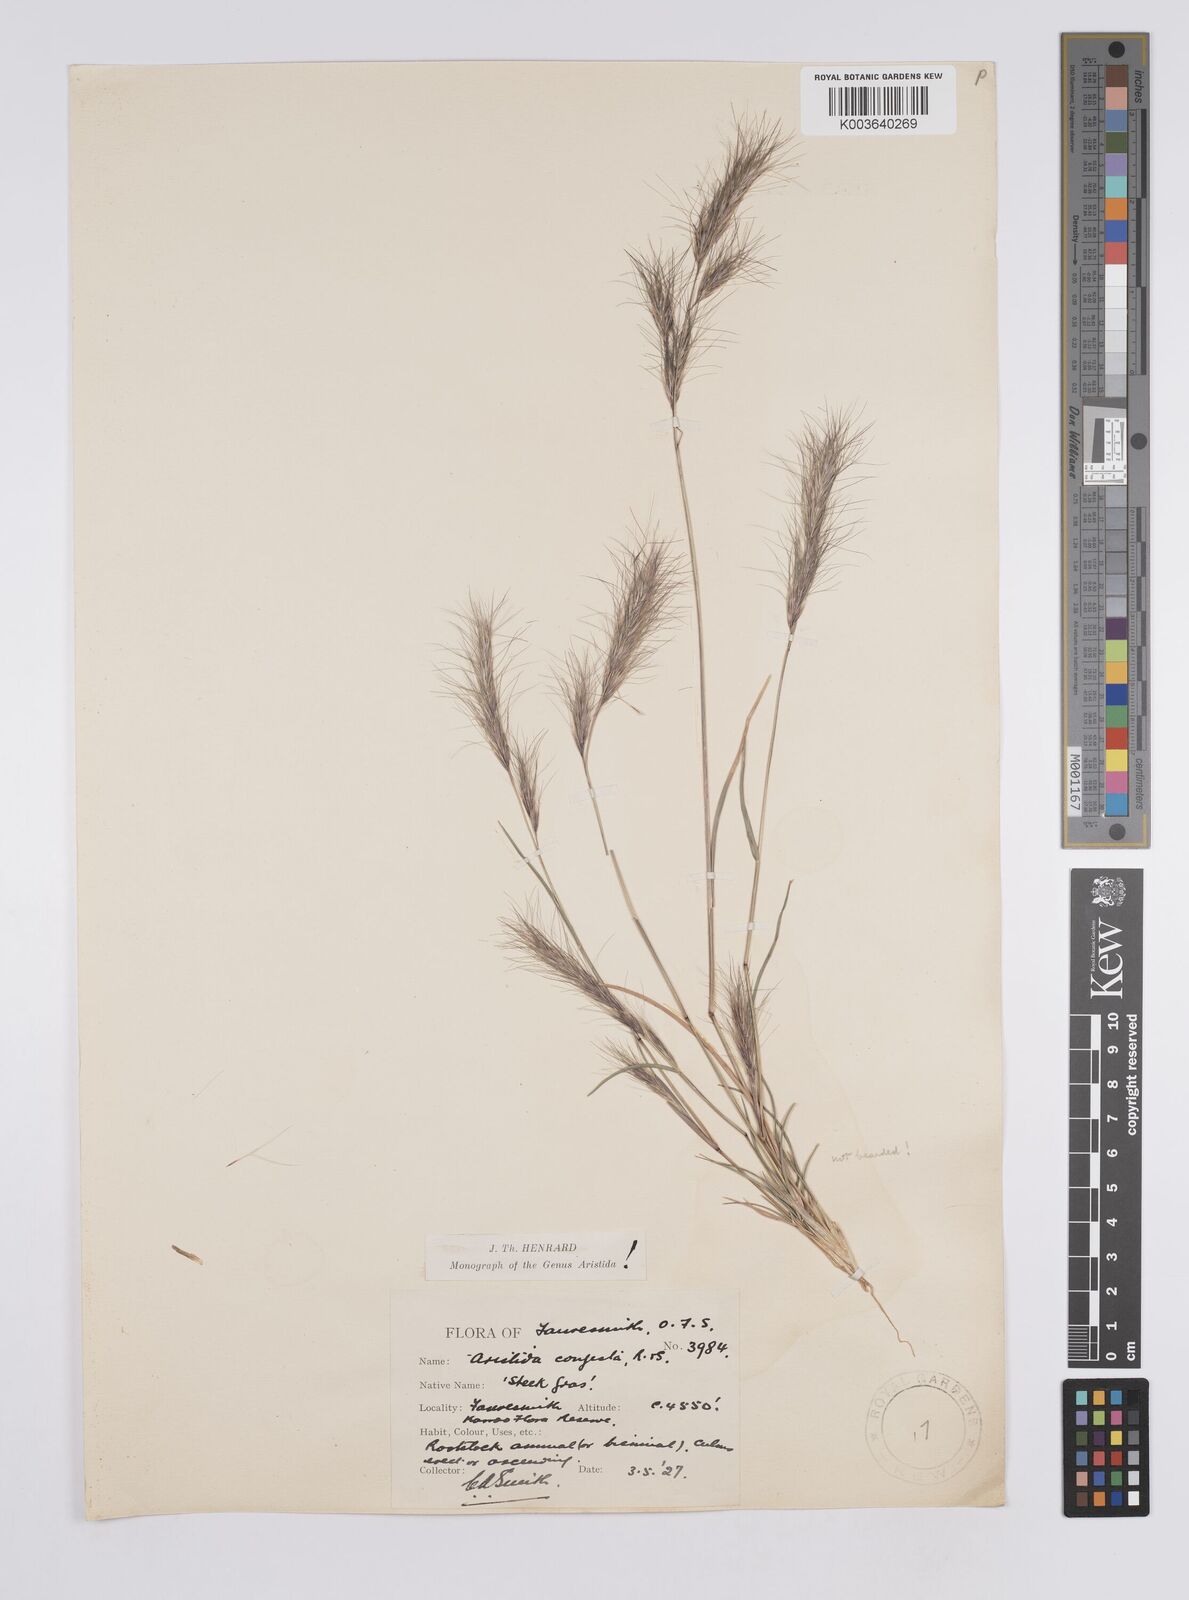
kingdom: Plantae
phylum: Tracheophyta
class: Liliopsida
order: Poales
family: Poaceae
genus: Aristida
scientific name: Aristida congesta
